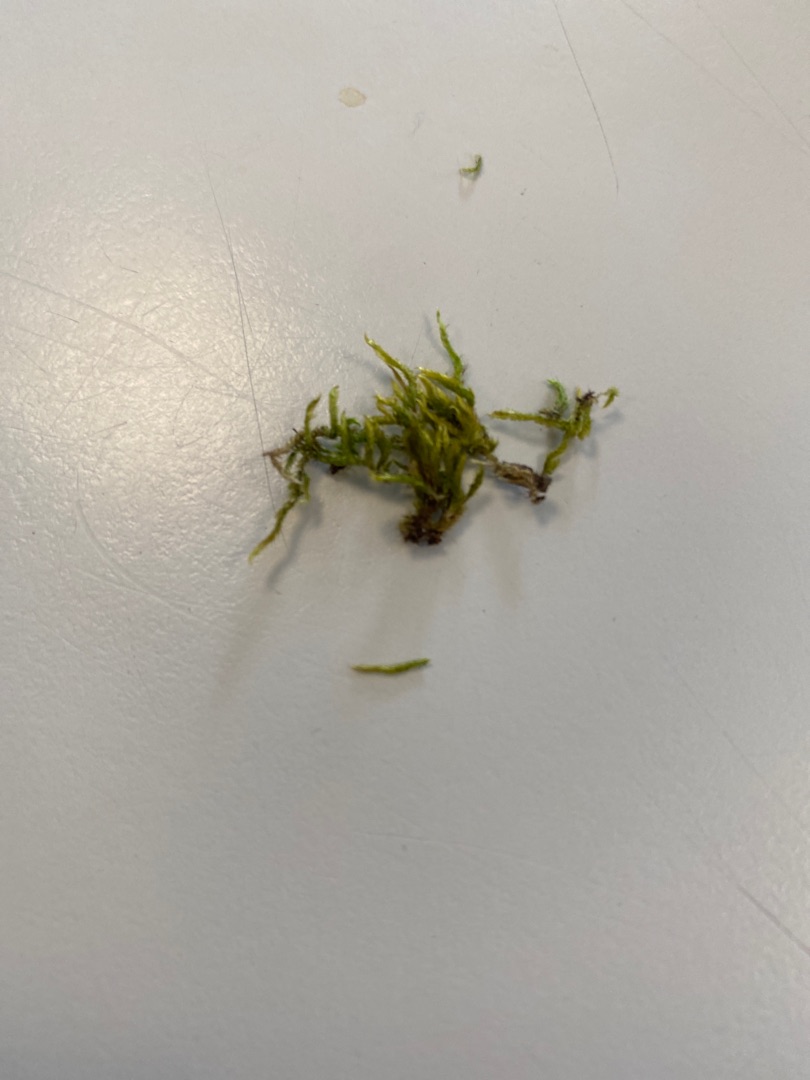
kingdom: Plantae
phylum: Bryophyta
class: Bryopsida
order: Hypnales
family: Hypnaceae
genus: Hypnum
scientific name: Hypnum
